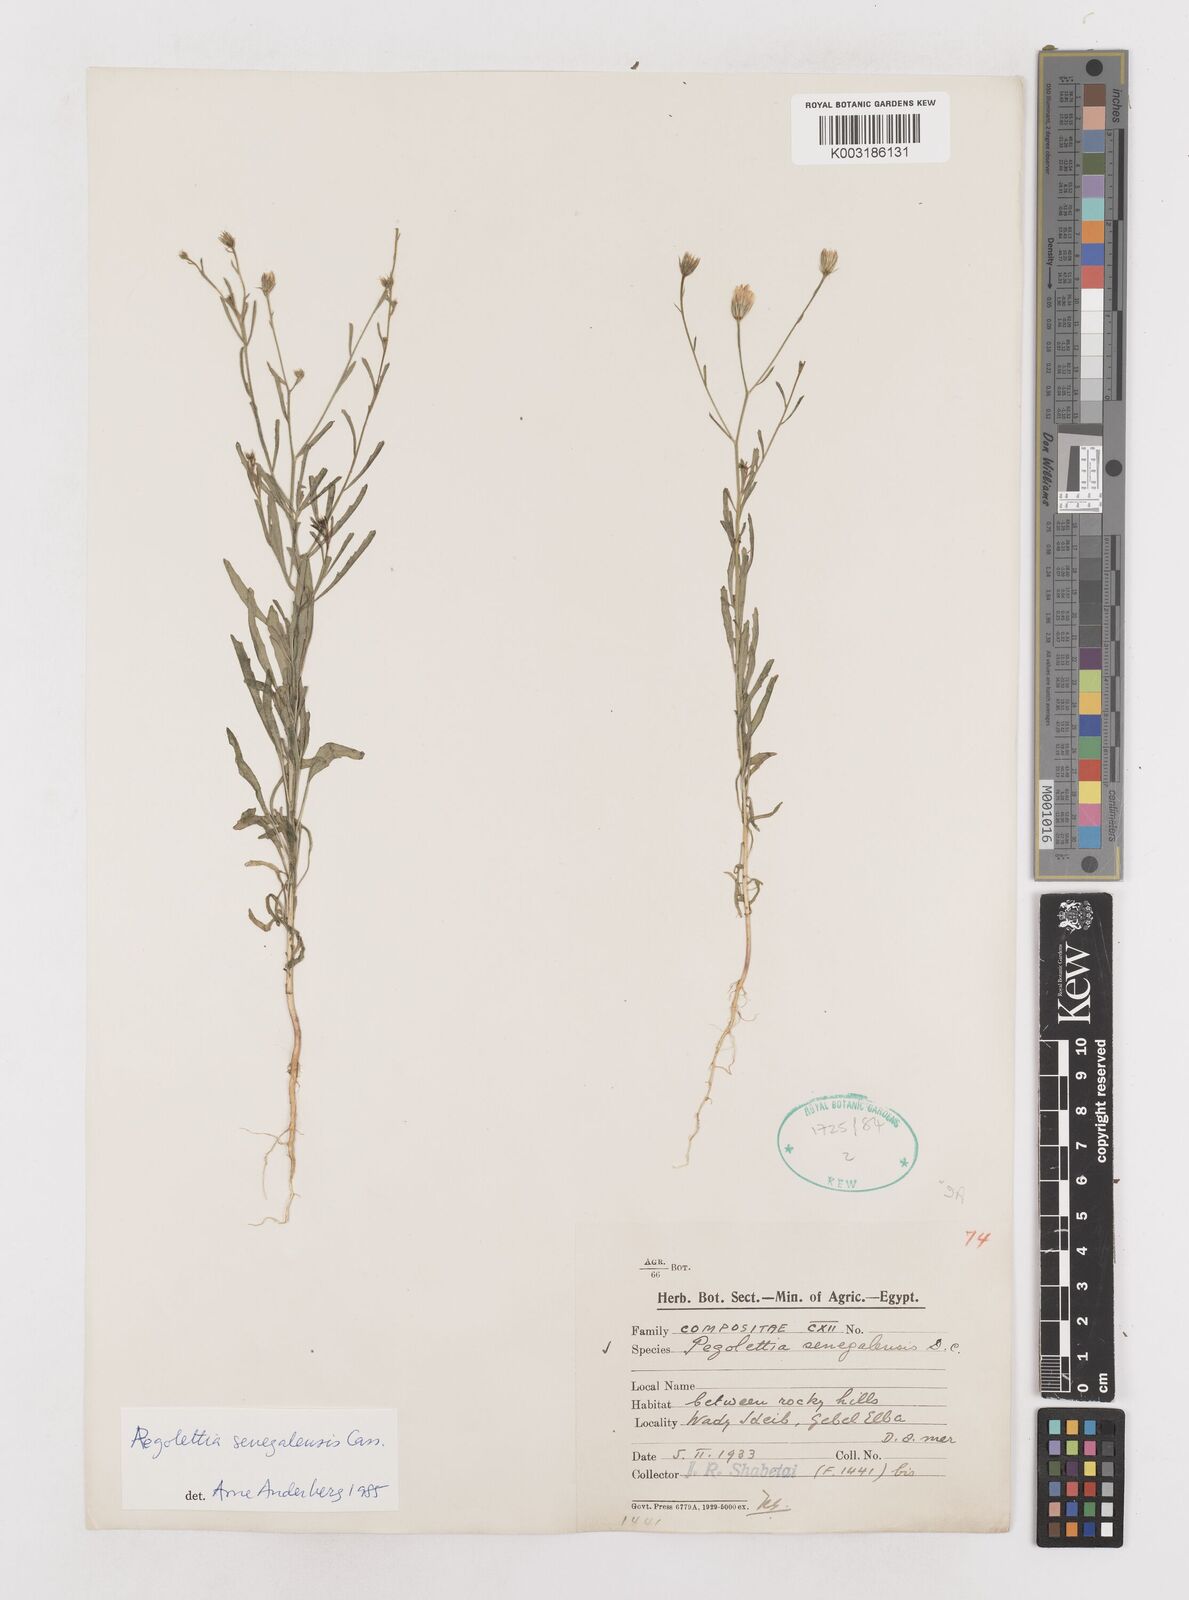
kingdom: Plantae
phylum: Tracheophyta
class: Magnoliopsida
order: Asterales
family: Asteraceae
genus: Pegolettia
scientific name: Pegolettia senegalensis
